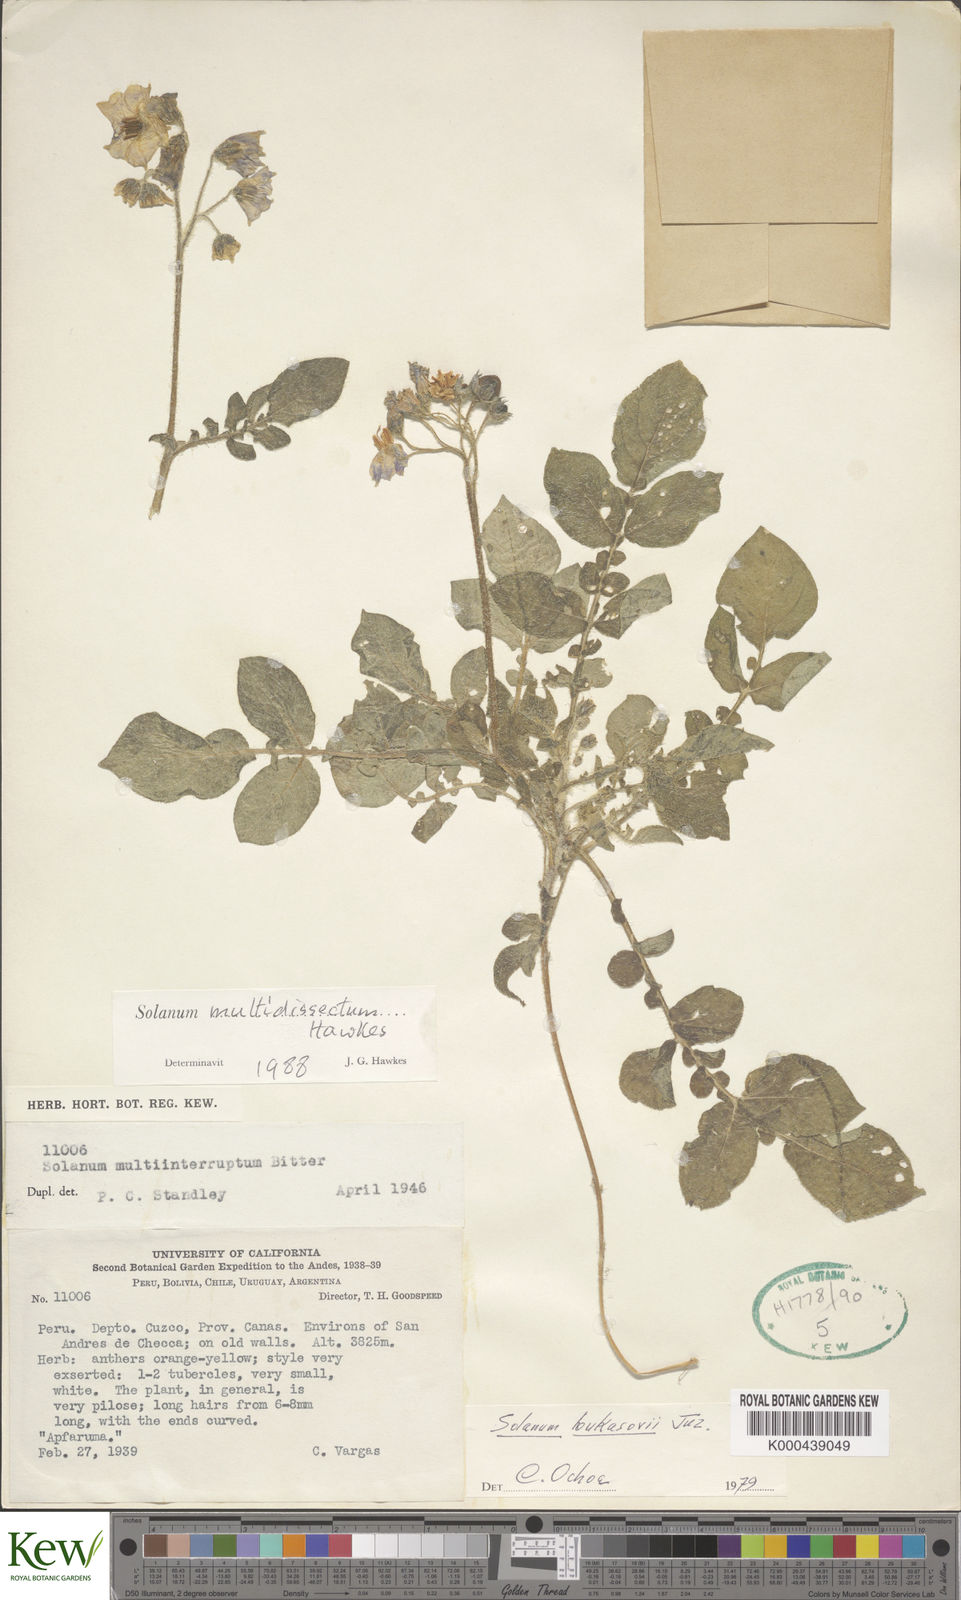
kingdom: Plantae
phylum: Tracheophyta
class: Magnoliopsida
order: Solanales
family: Solanaceae
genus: Solanum
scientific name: Solanum candolleanum
